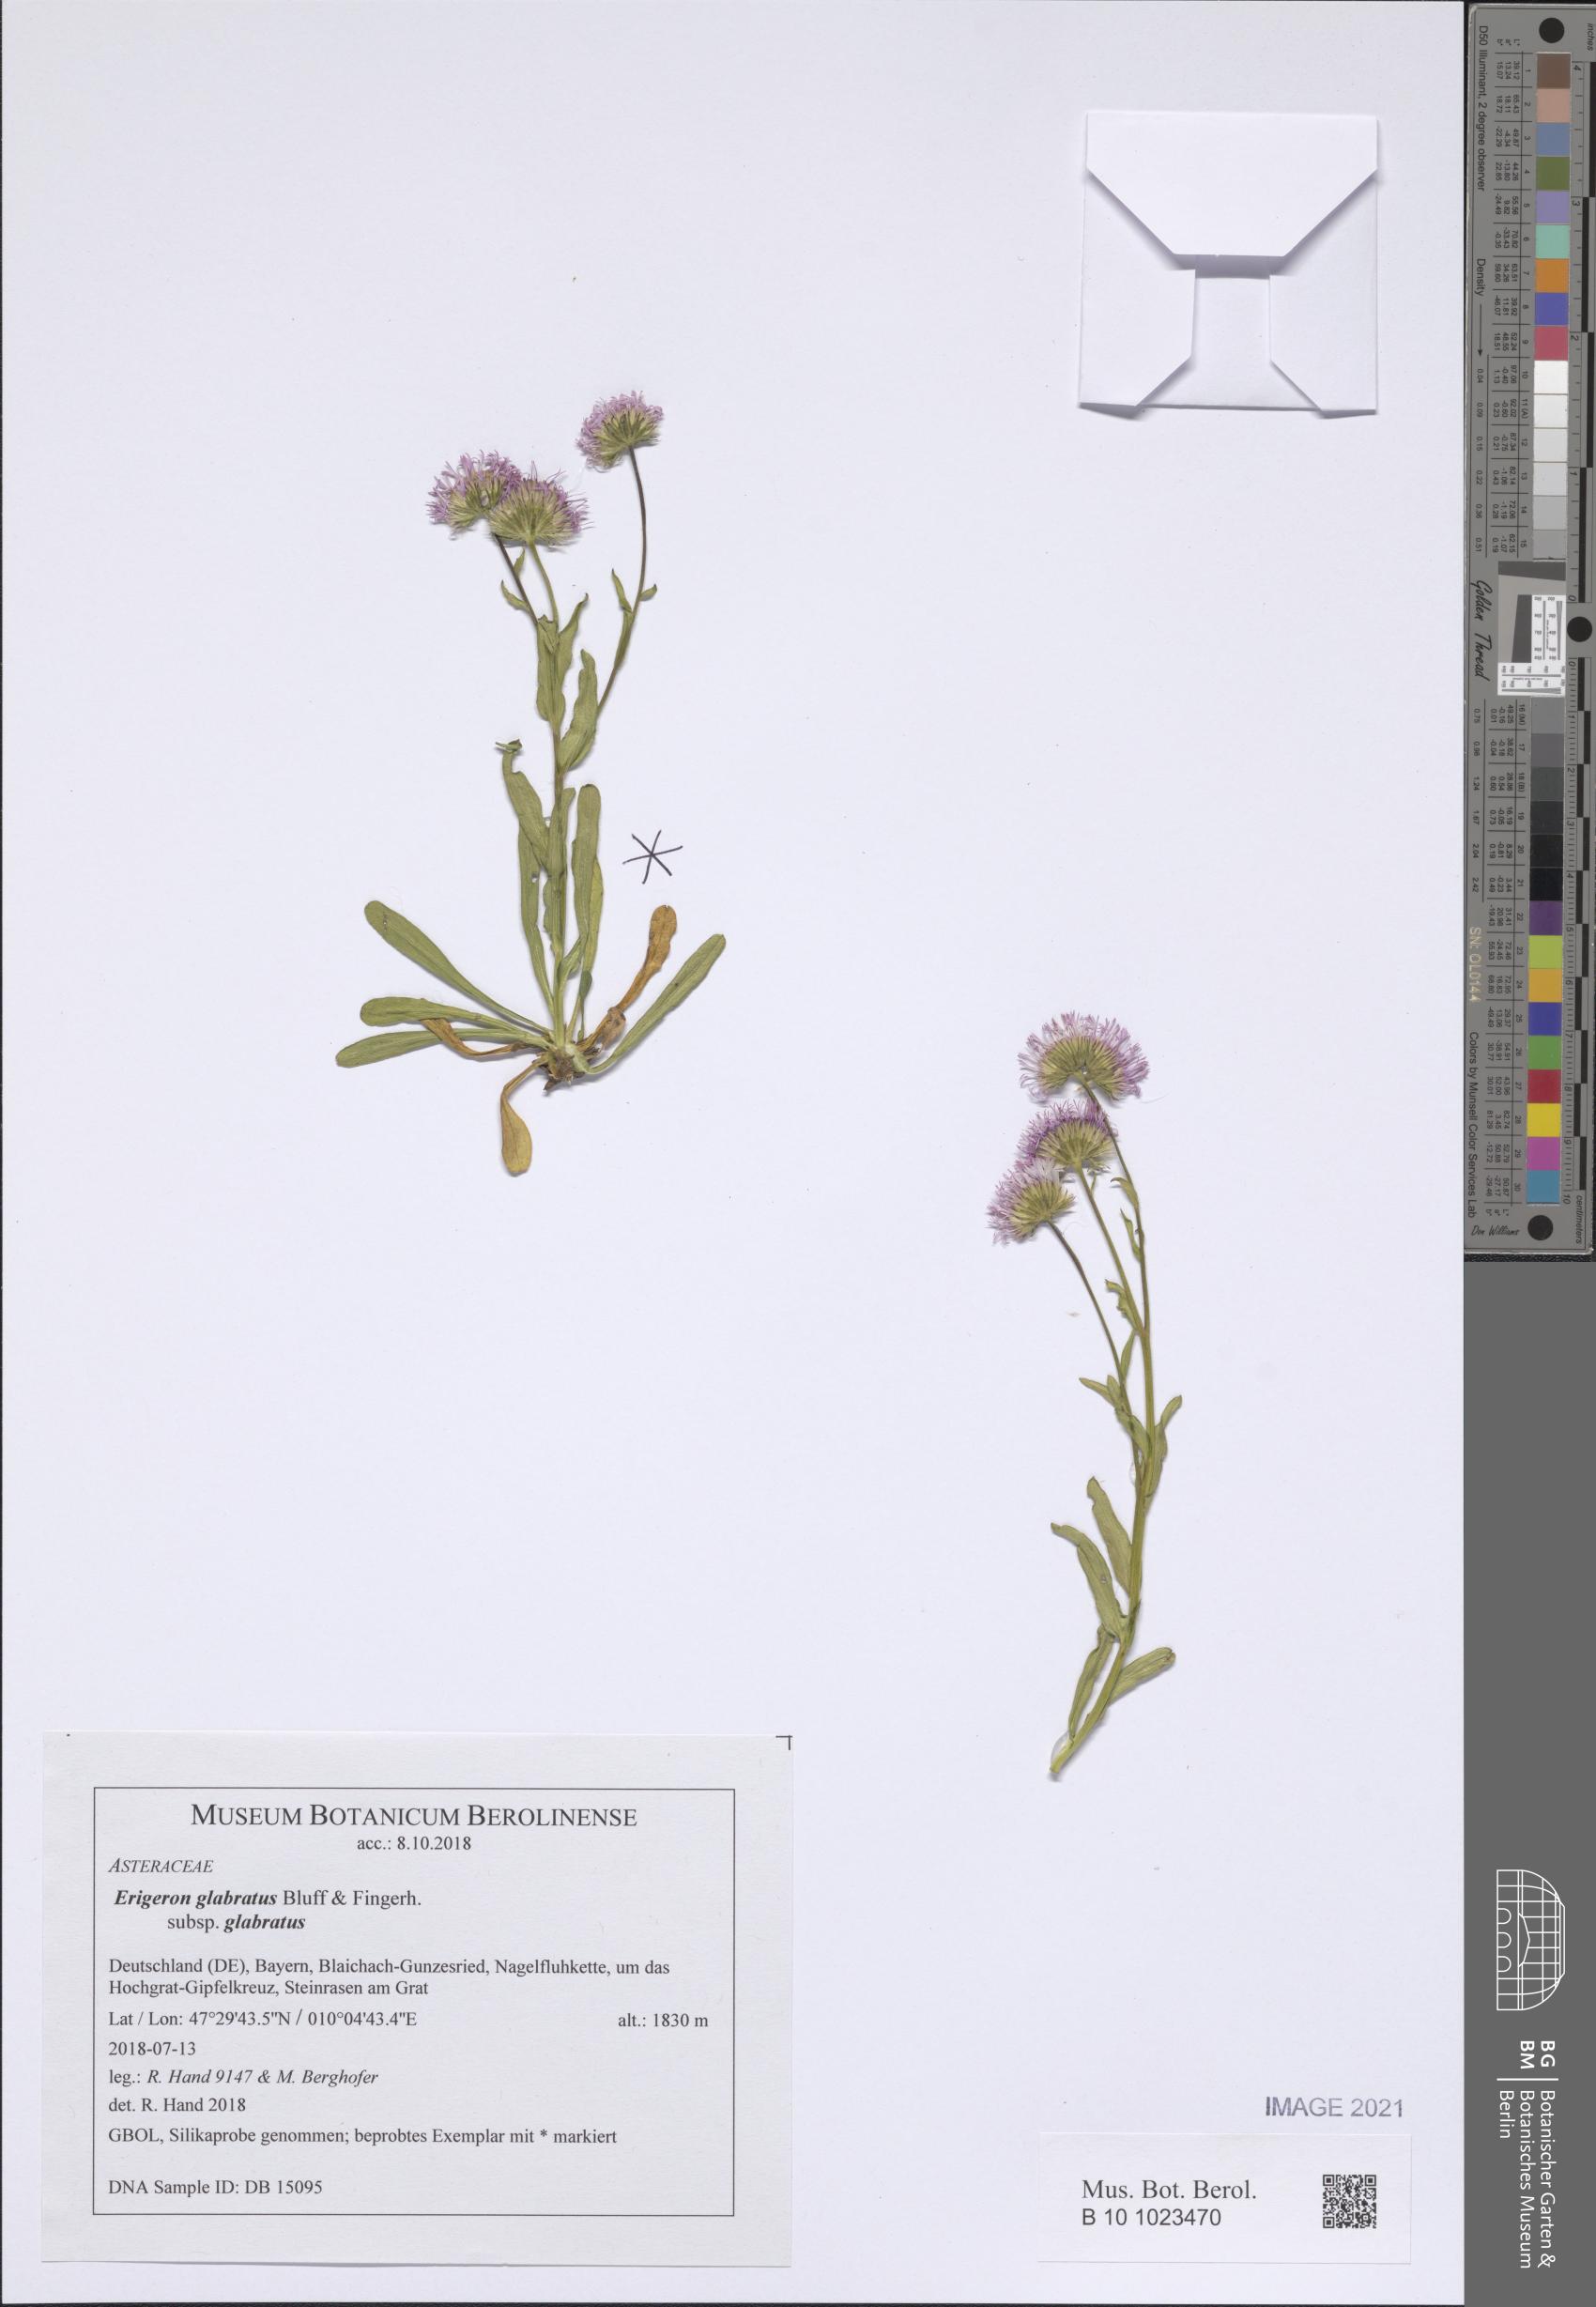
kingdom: Plantae
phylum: Tracheophyta
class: Magnoliopsida
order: Asterales
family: Asteraceae
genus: Erigeron
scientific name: Erigeron glabratus
